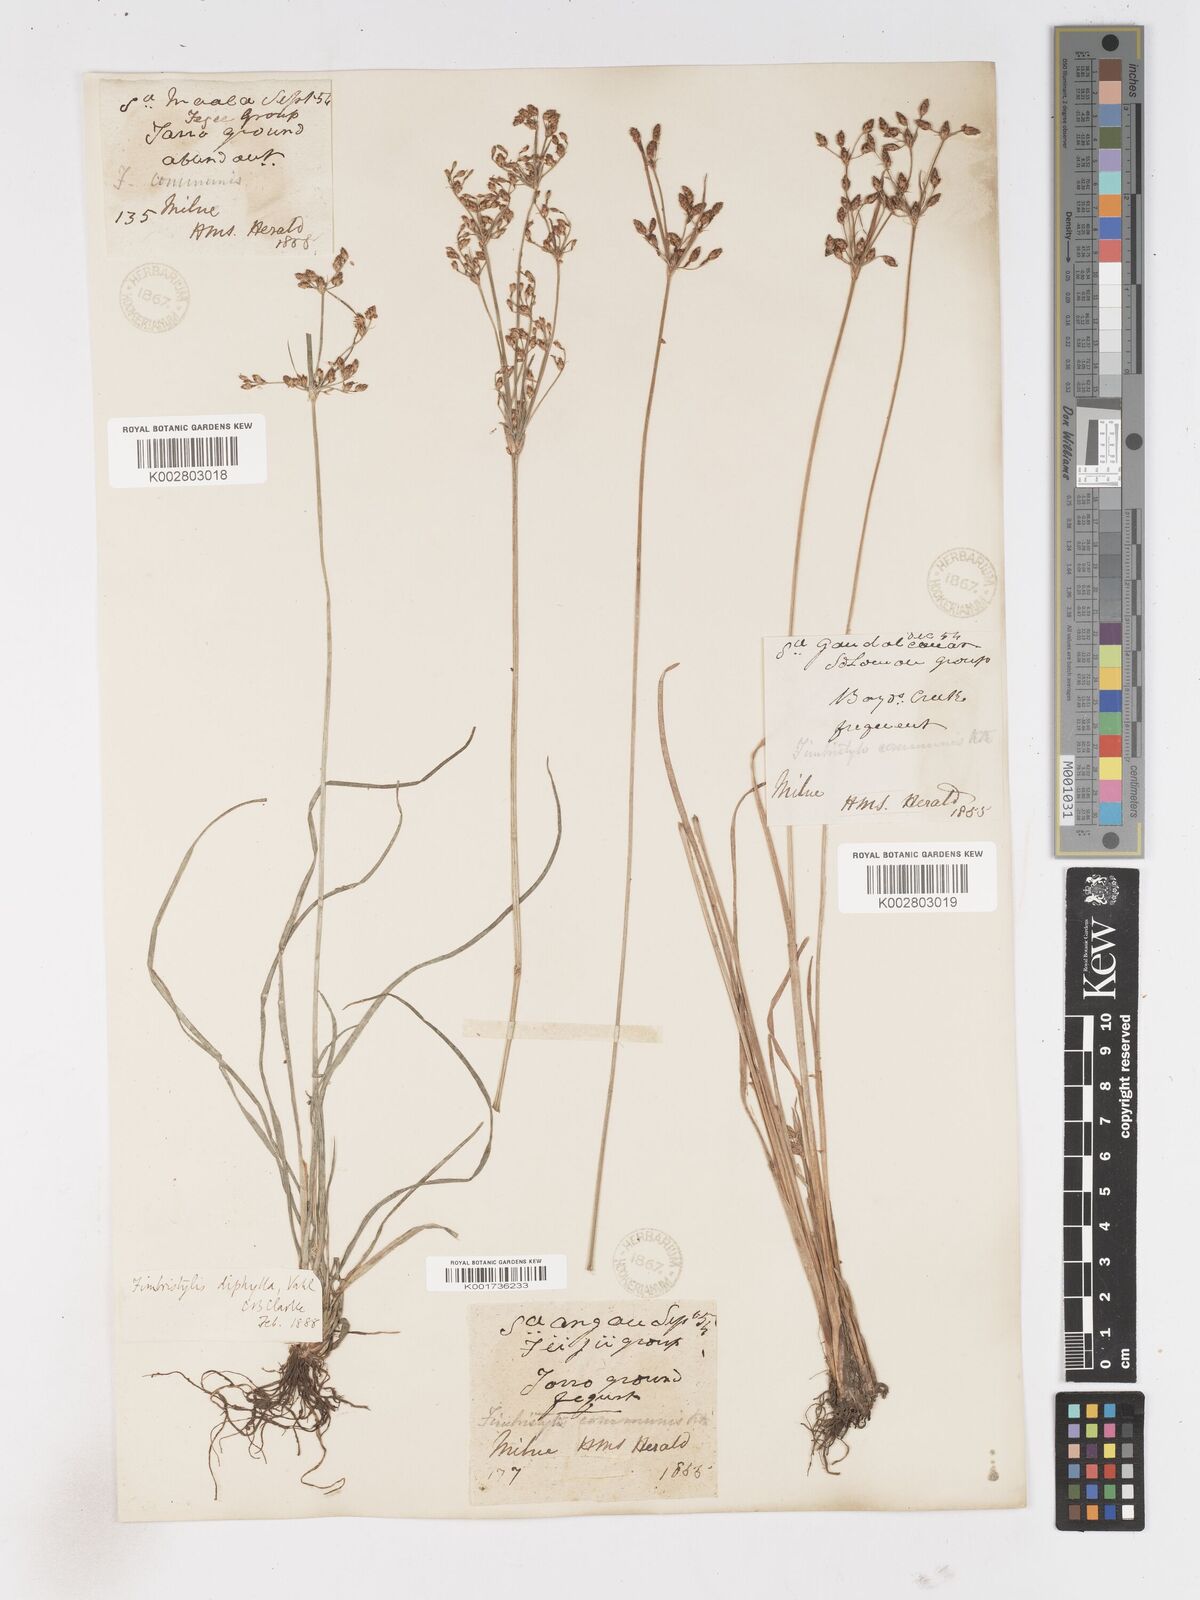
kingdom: Plantae
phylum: Tracheophyta
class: Liliopsida
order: Poales
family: Cyperaceae
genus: Fimbristylis
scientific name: Fimbristylis dichotoma
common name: Forked fimbry
